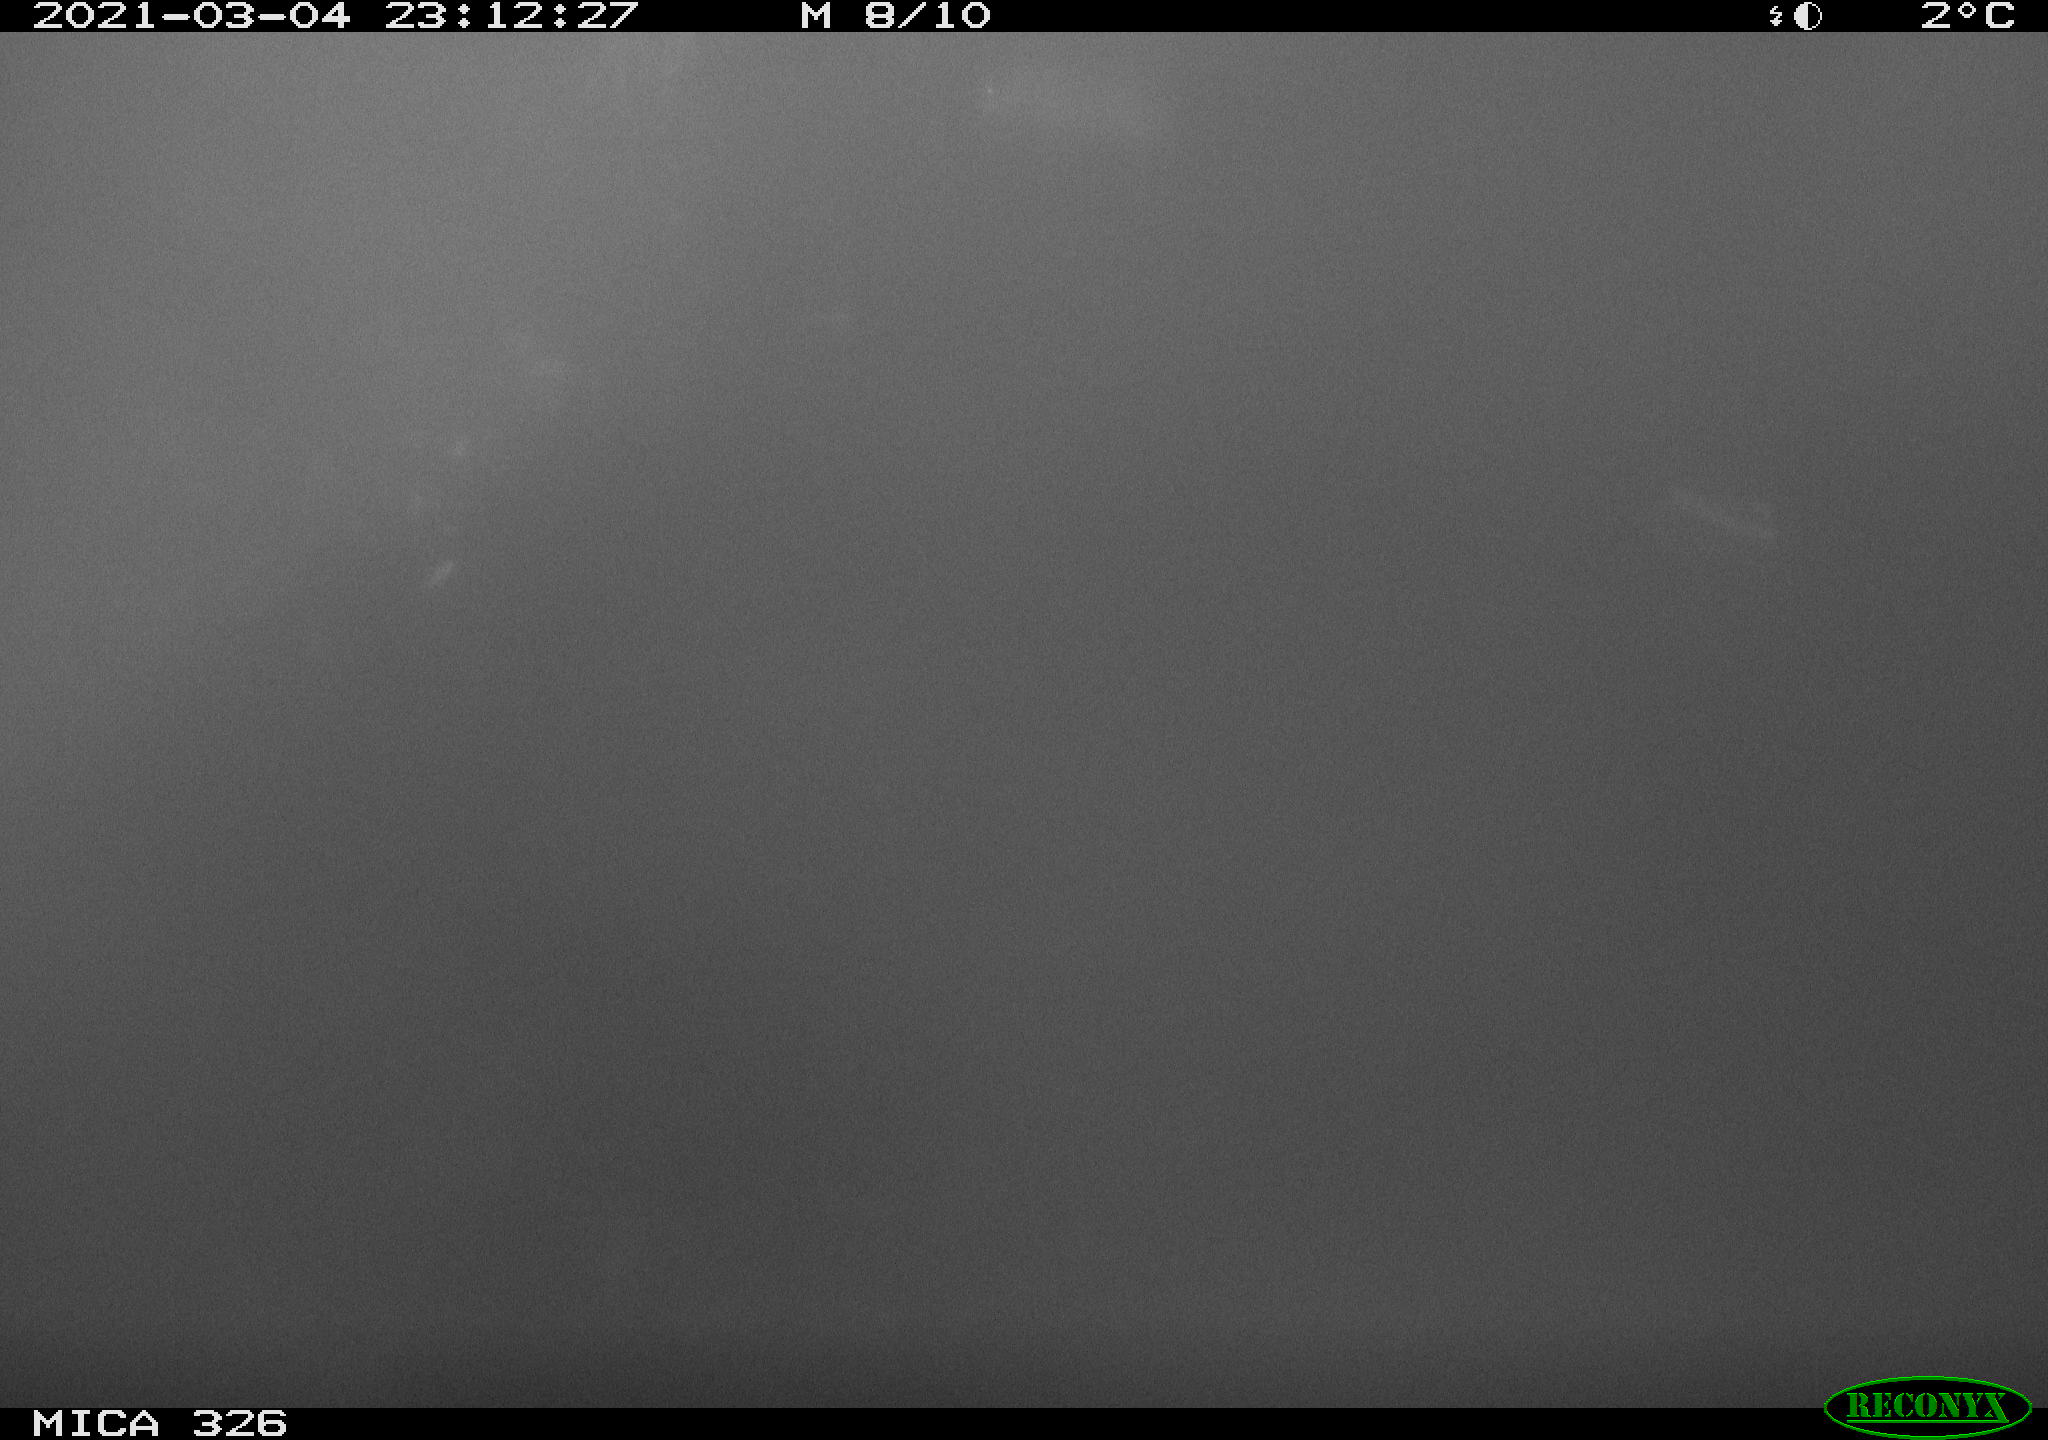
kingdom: Animalia
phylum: Chordata
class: Mammalia
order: Rodentia
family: Cricetidae
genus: Ondatra
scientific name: Ondatra zibethicus
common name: Muskrat
